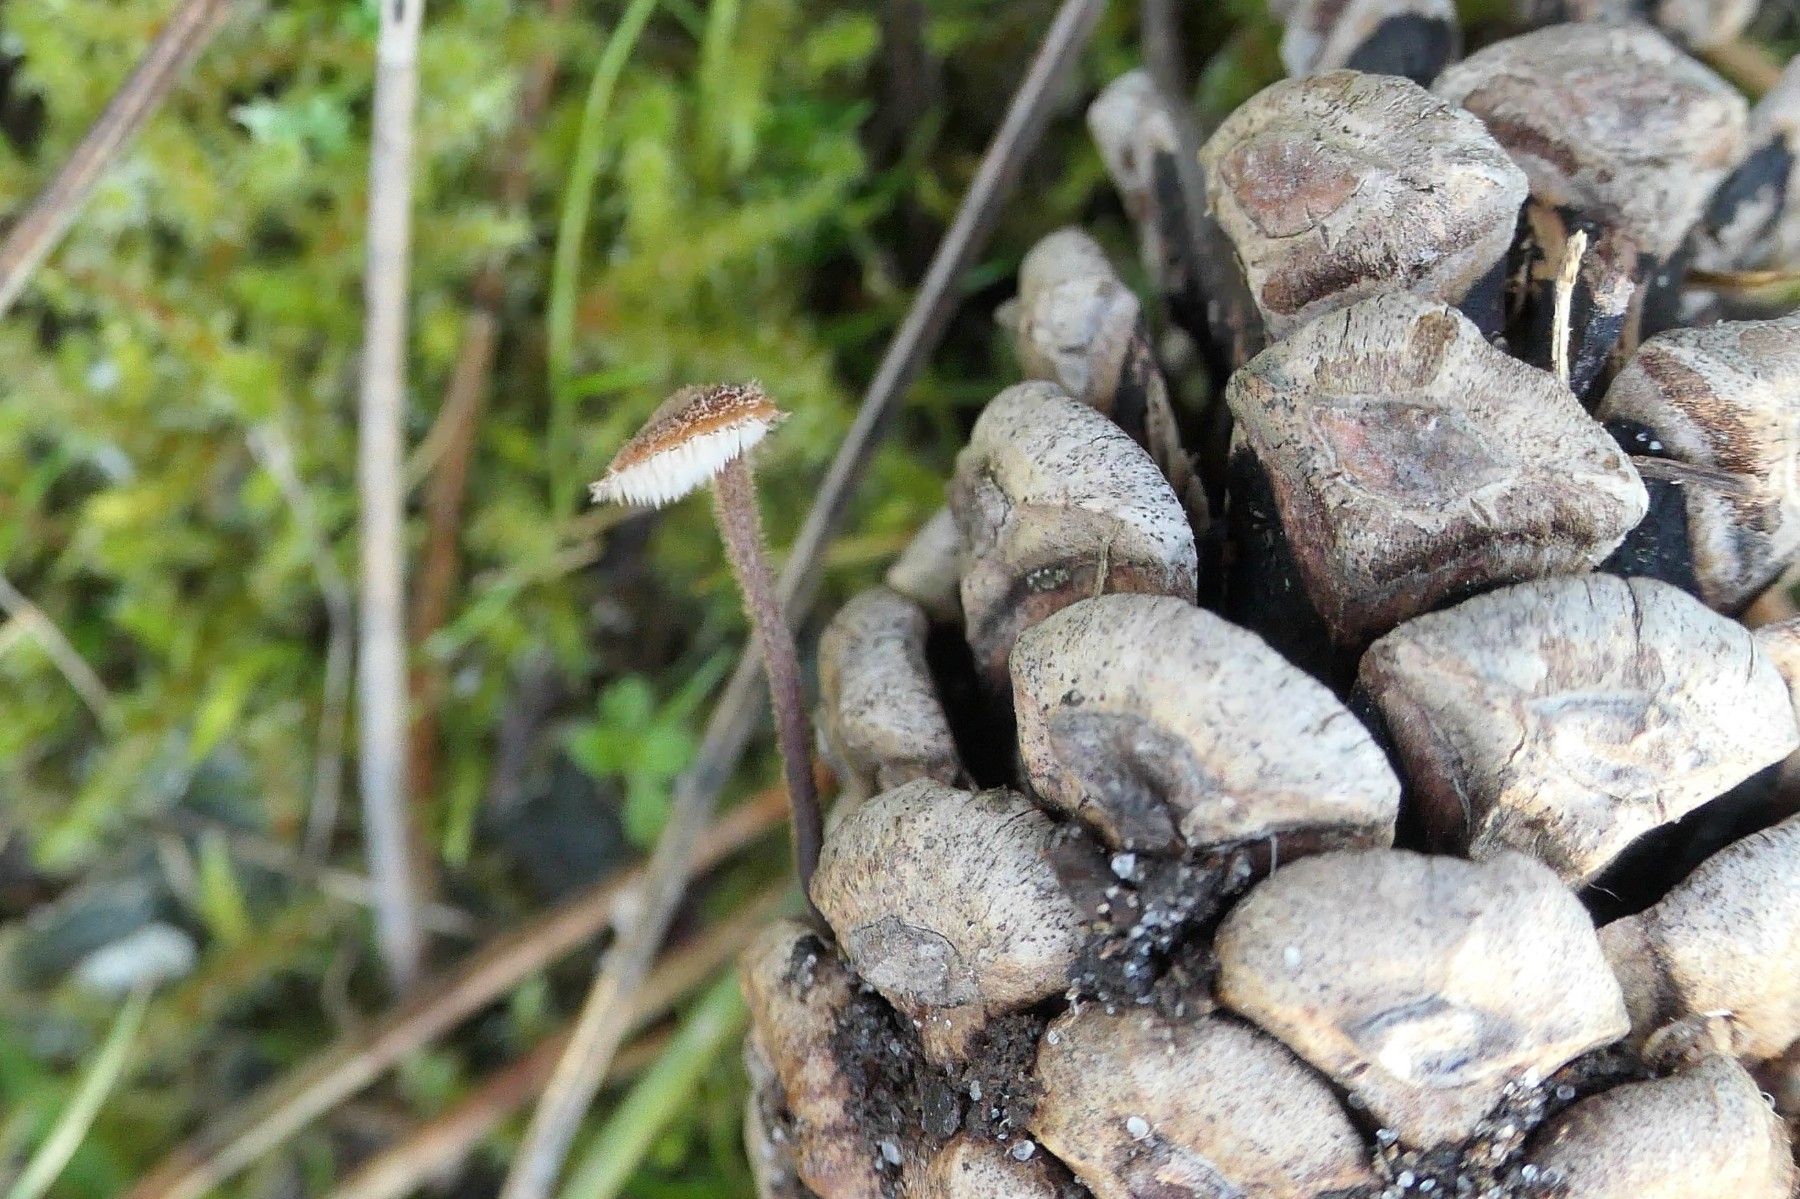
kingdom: Fungi
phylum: Basidiomycota
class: Agaricomycetes
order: Russulales
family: Auriscalpiaceae
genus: Auriscalpium
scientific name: Auriscalpium vulgare
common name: koglepigsvamp
